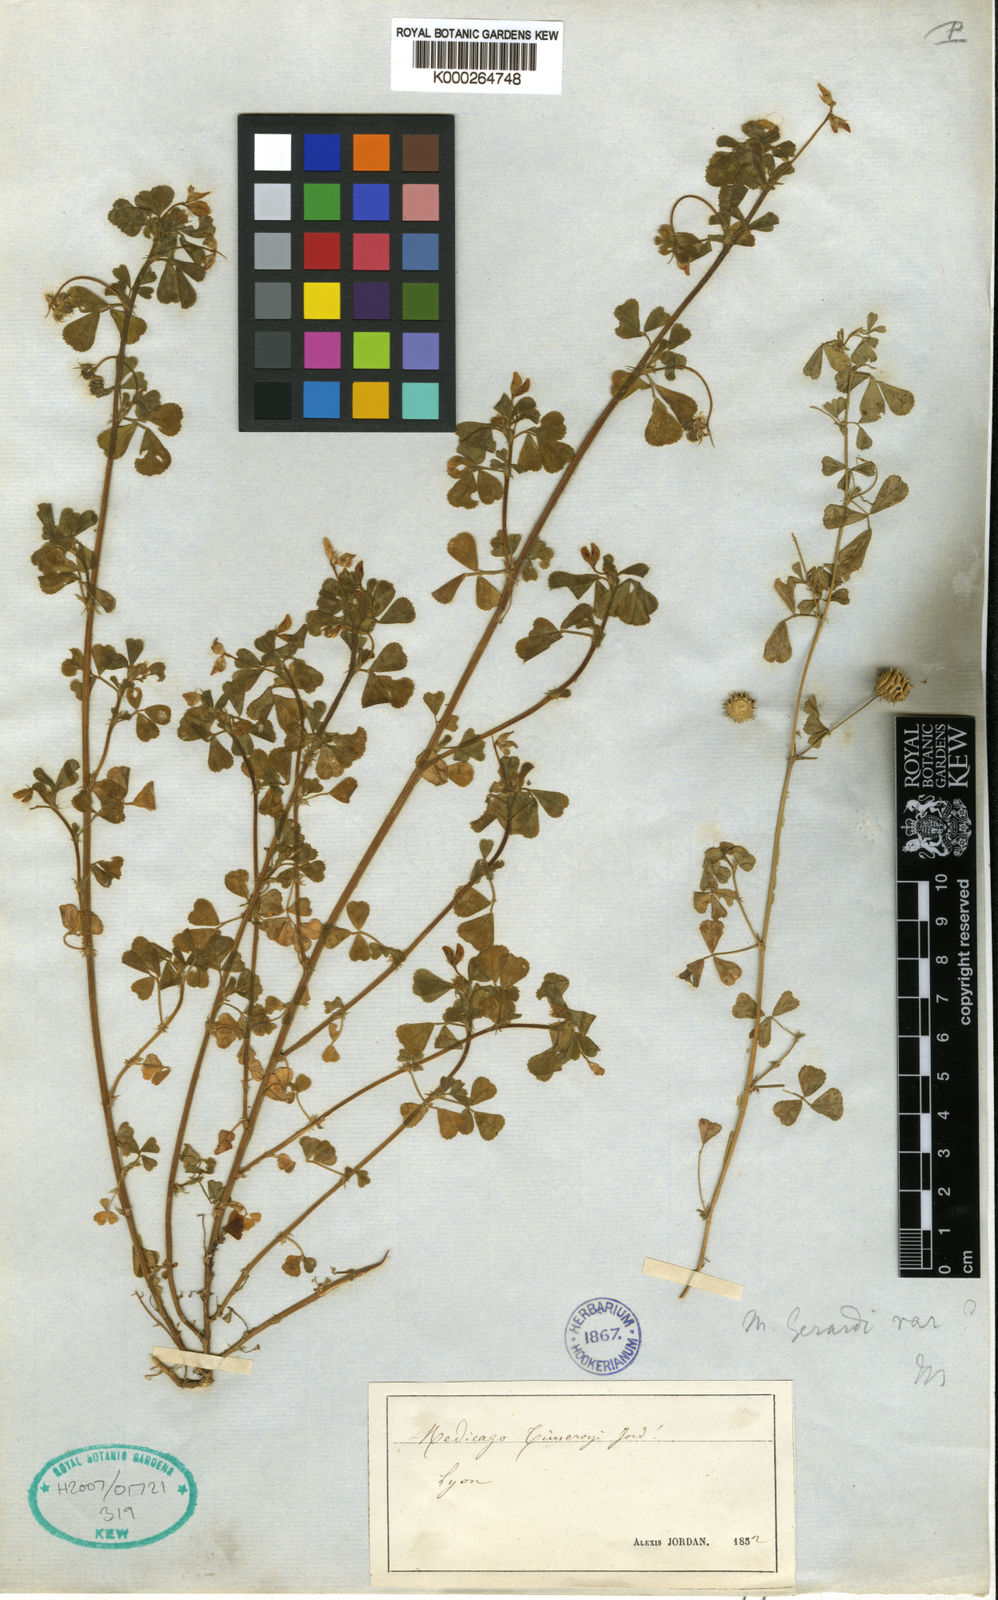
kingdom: Plantae
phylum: Tracheophyta
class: Magnoliopsida
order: Fabales
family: Fabaceae
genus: Medicago
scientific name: Medicago
